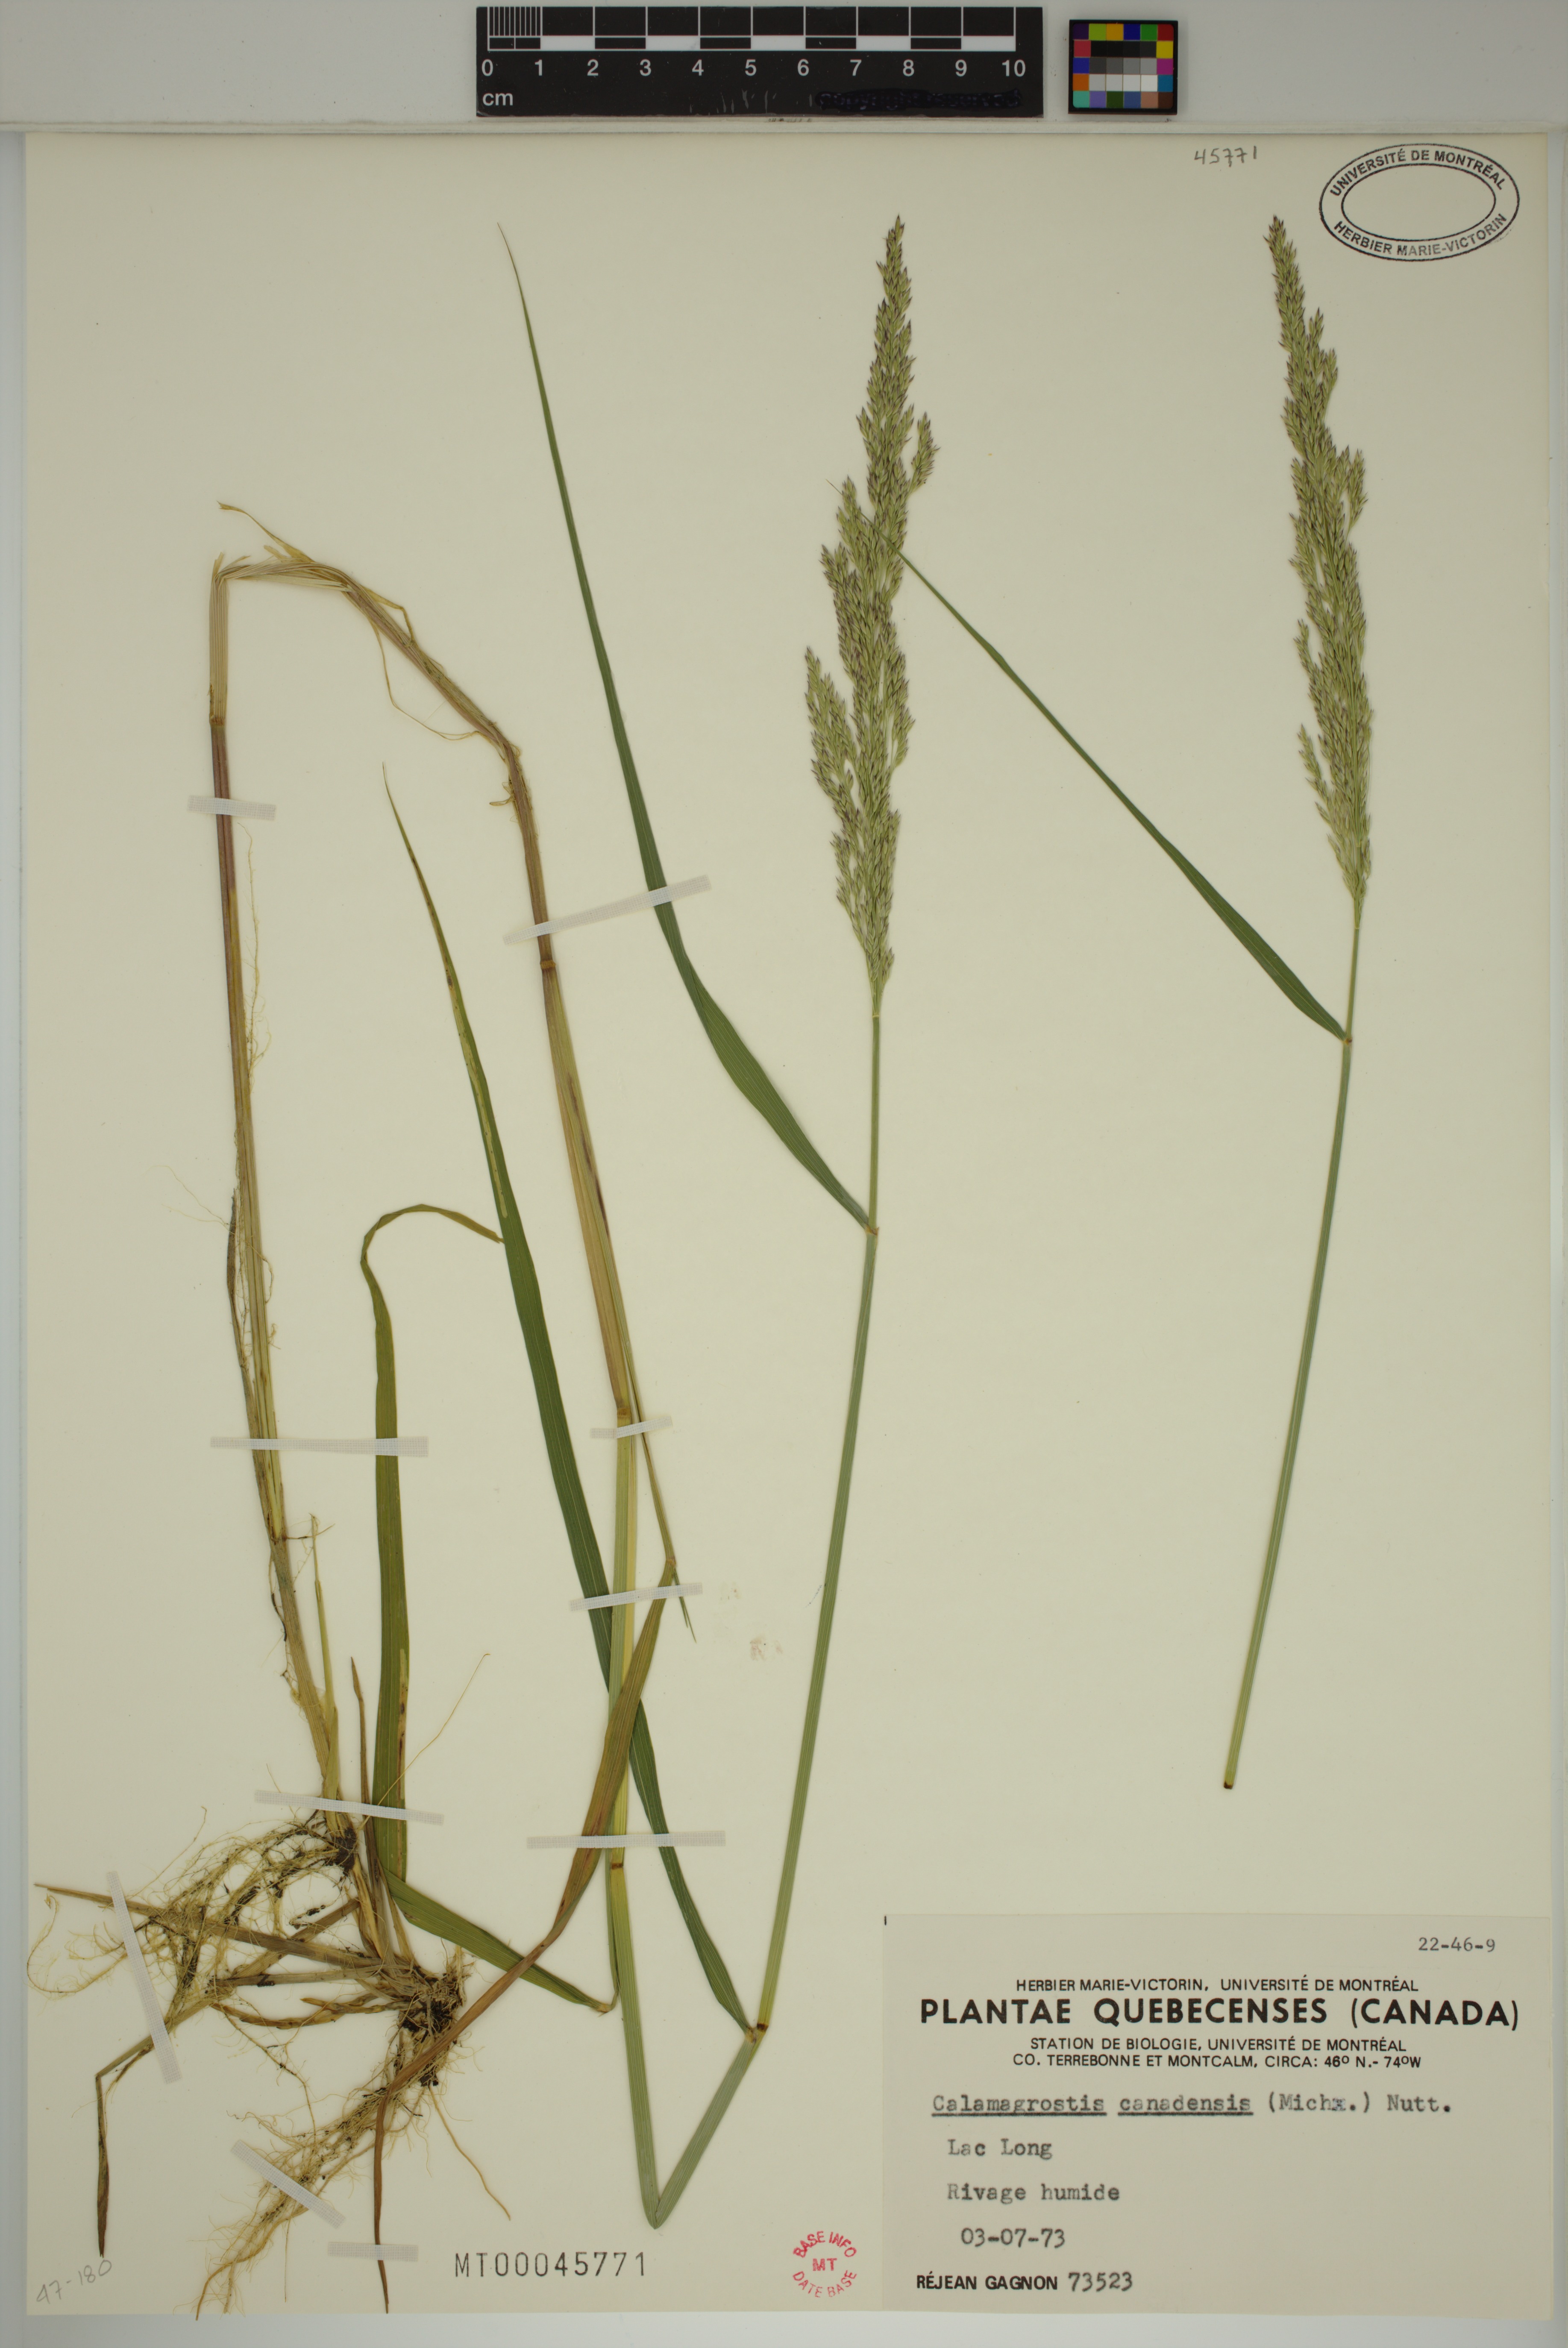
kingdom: Plantae
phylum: Tracheophyta
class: Liliopsida
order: Poales
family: Poaceae
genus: Calamagrostis
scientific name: Calamagrostis canadensis
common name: Canada bluejoint
